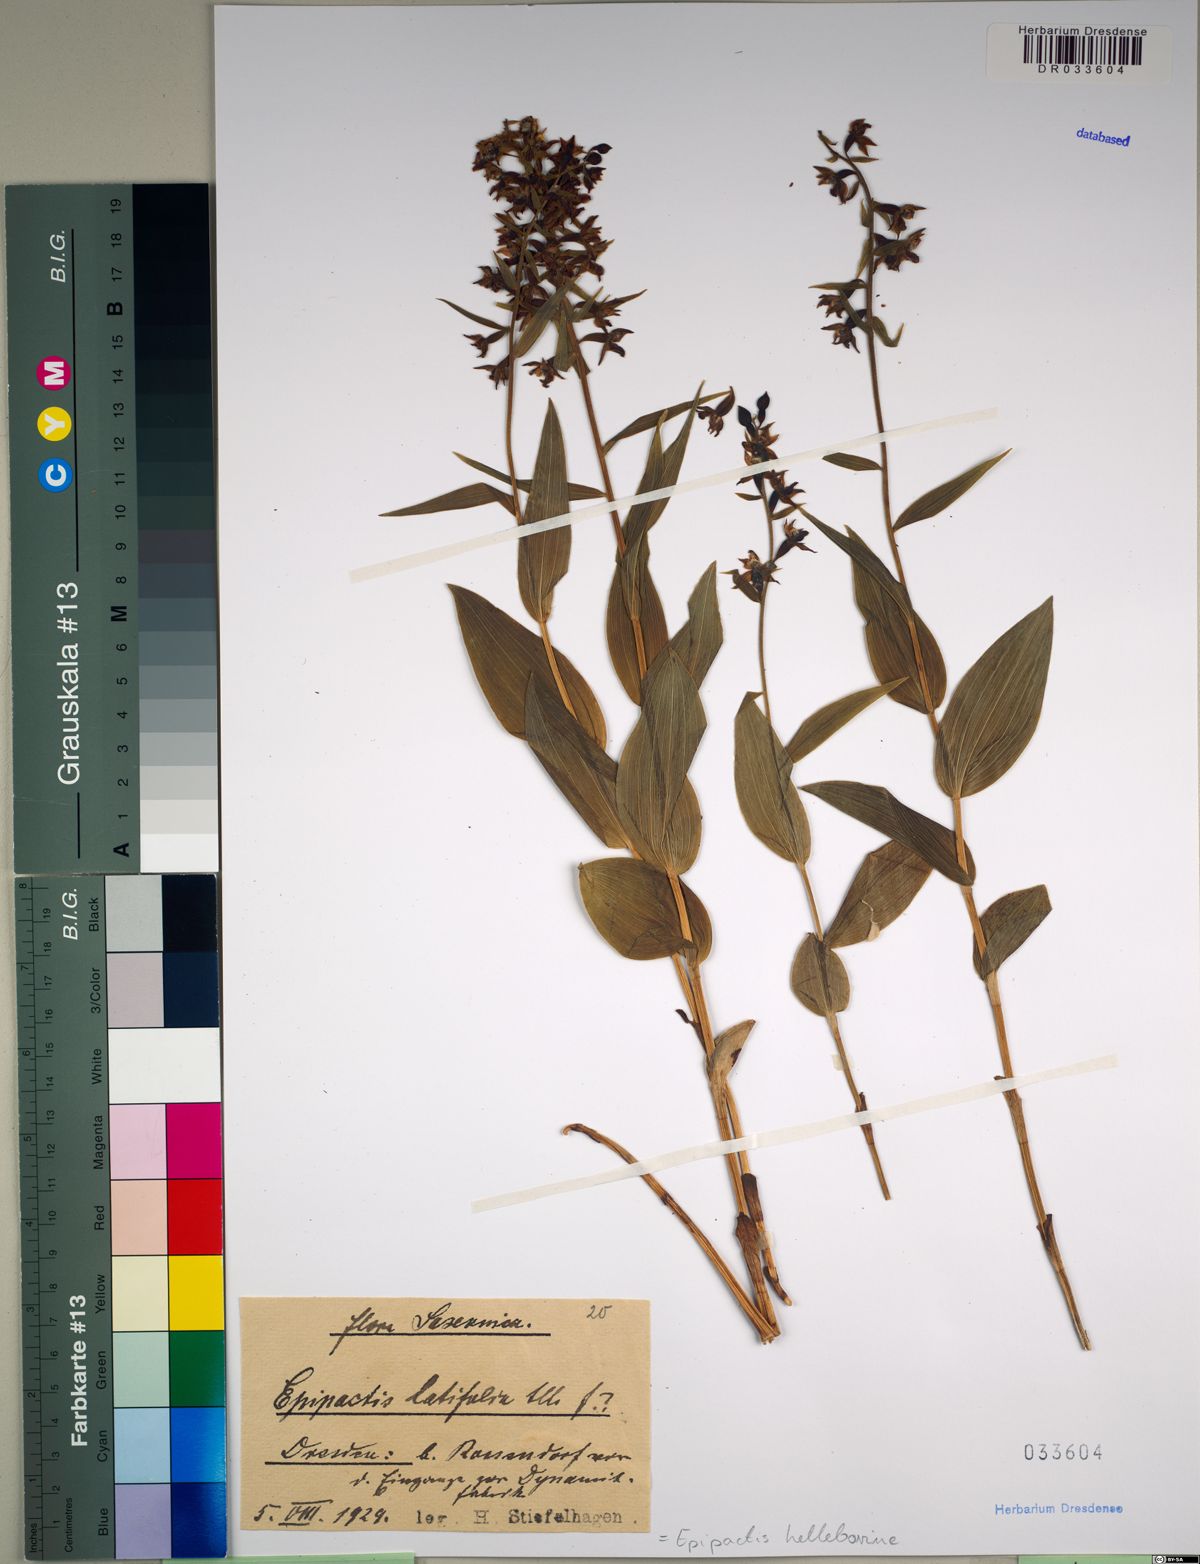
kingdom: Plantae
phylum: Tracheophyta
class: Liliopsida
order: Asparagales
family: Orchidaceae
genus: Epipactis
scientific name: Epipactis helleborine
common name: Broad-leaved helleborine
